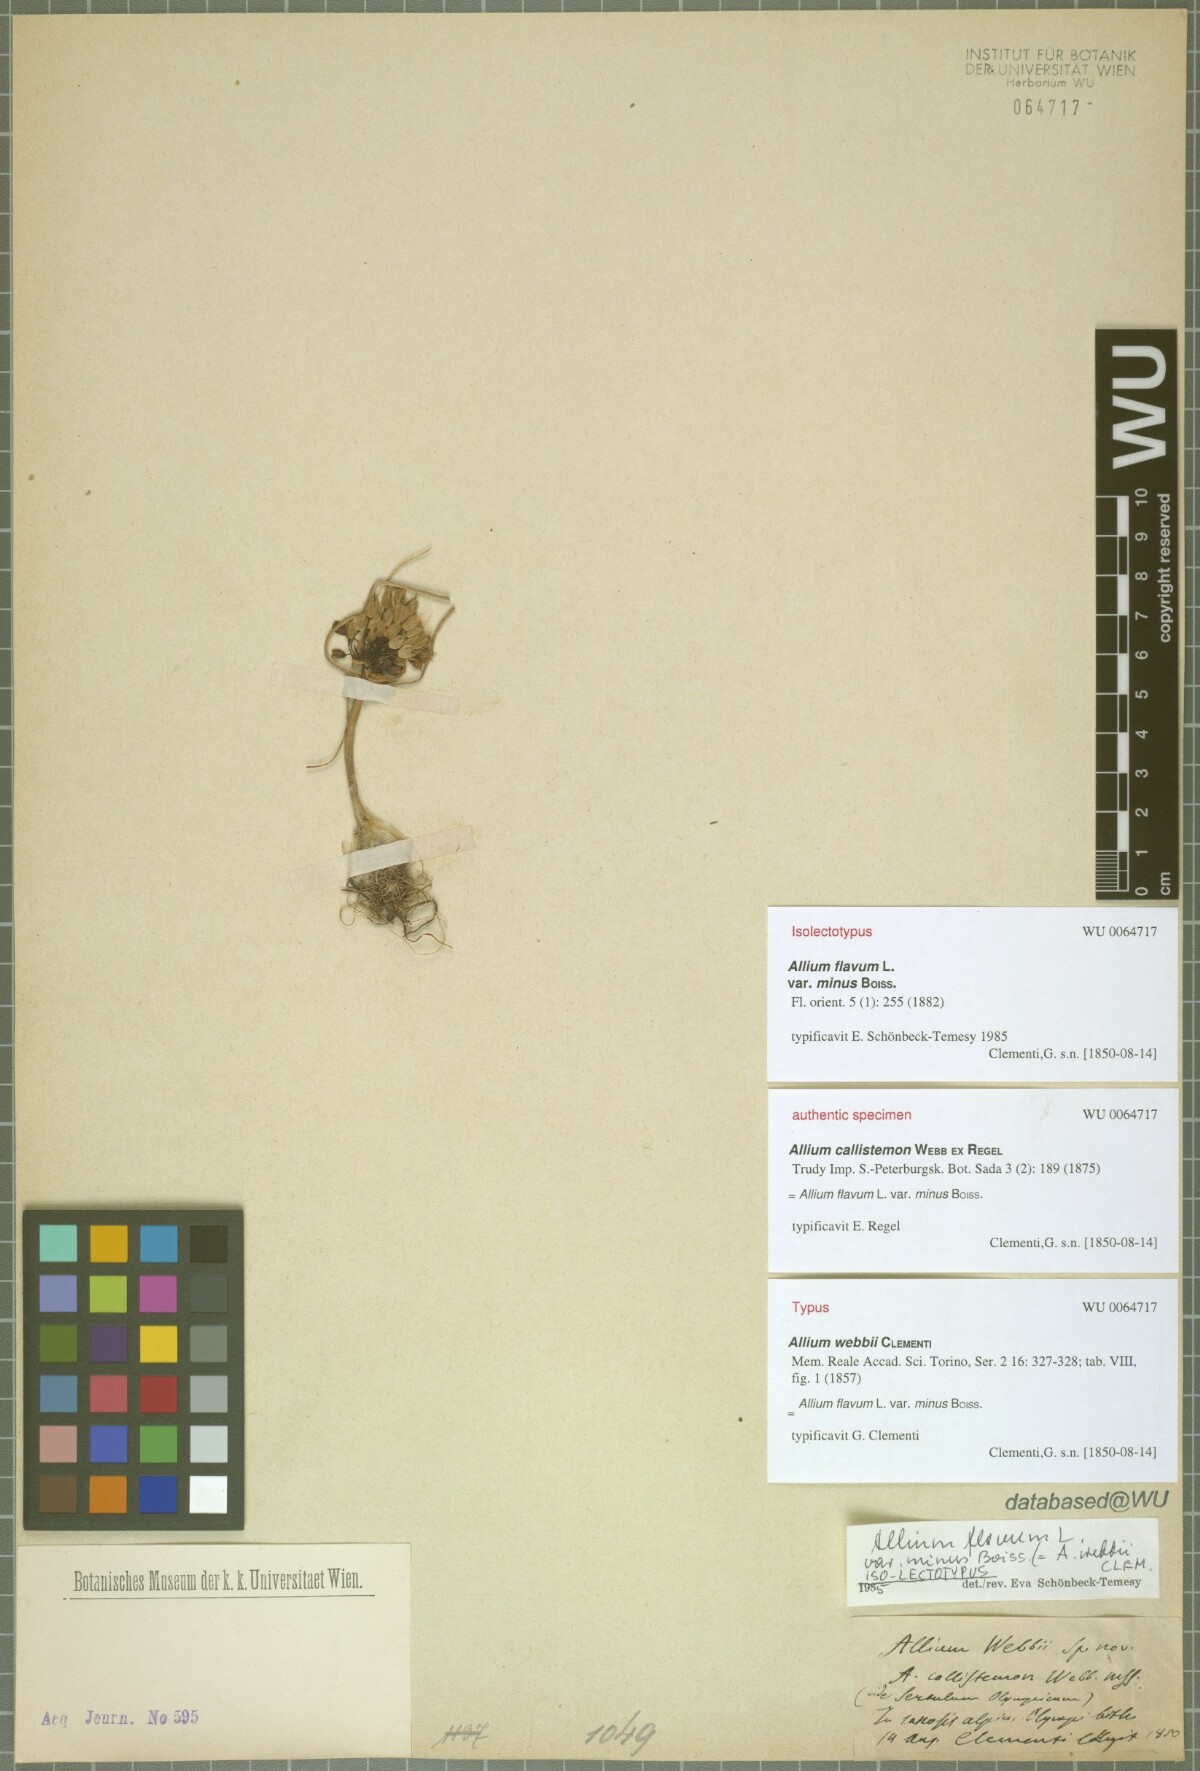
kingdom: Plantae
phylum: Tracheophyta
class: Liliopsida
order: Asparagales
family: Amaryllidaceae
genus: Allium
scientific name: Allium flavum
